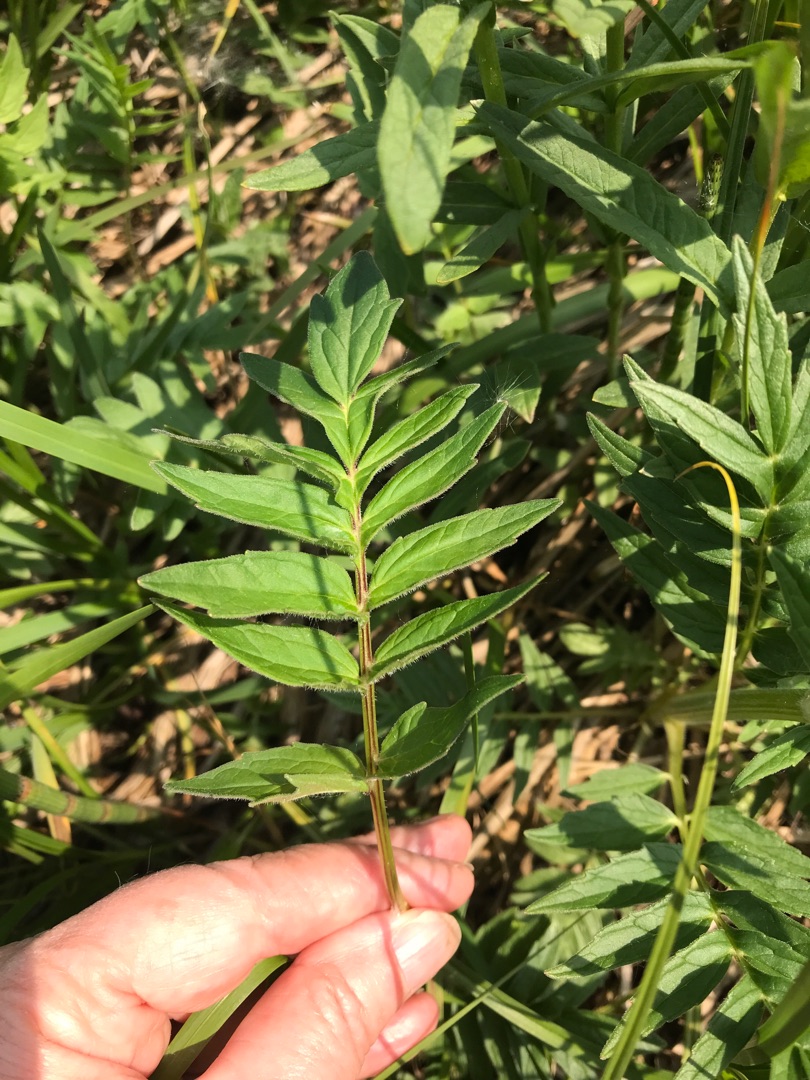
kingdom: Plantae
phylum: Tracheophyta
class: Magnoliopsida
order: Dipsacales
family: Caprifoliaceae
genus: Valeriana
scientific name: Valeriana sambucifolia
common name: Hyldebladet baldrian
